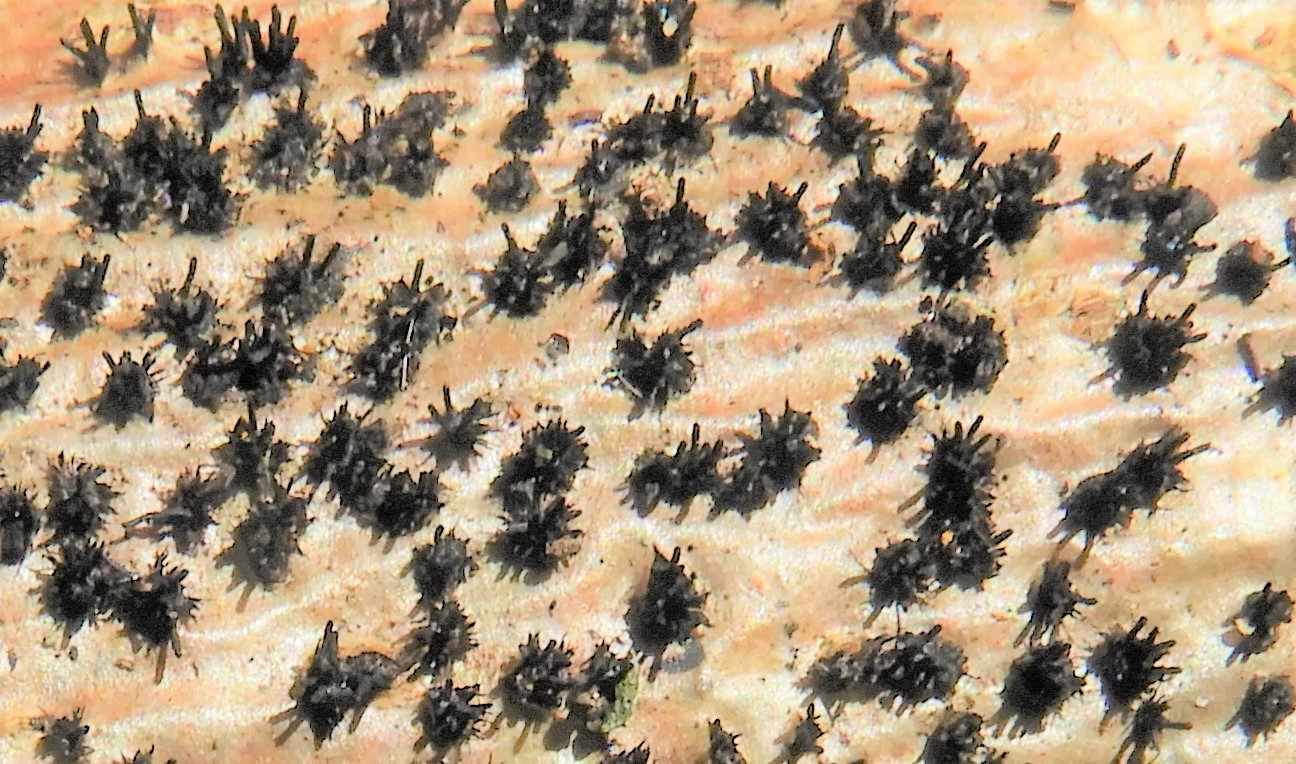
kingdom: Fungi
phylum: Ascomycota
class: Sordariomycetes
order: Xylariales
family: Diatrypaceae
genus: Peroneutypa
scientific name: Peroneutypa scoparia
